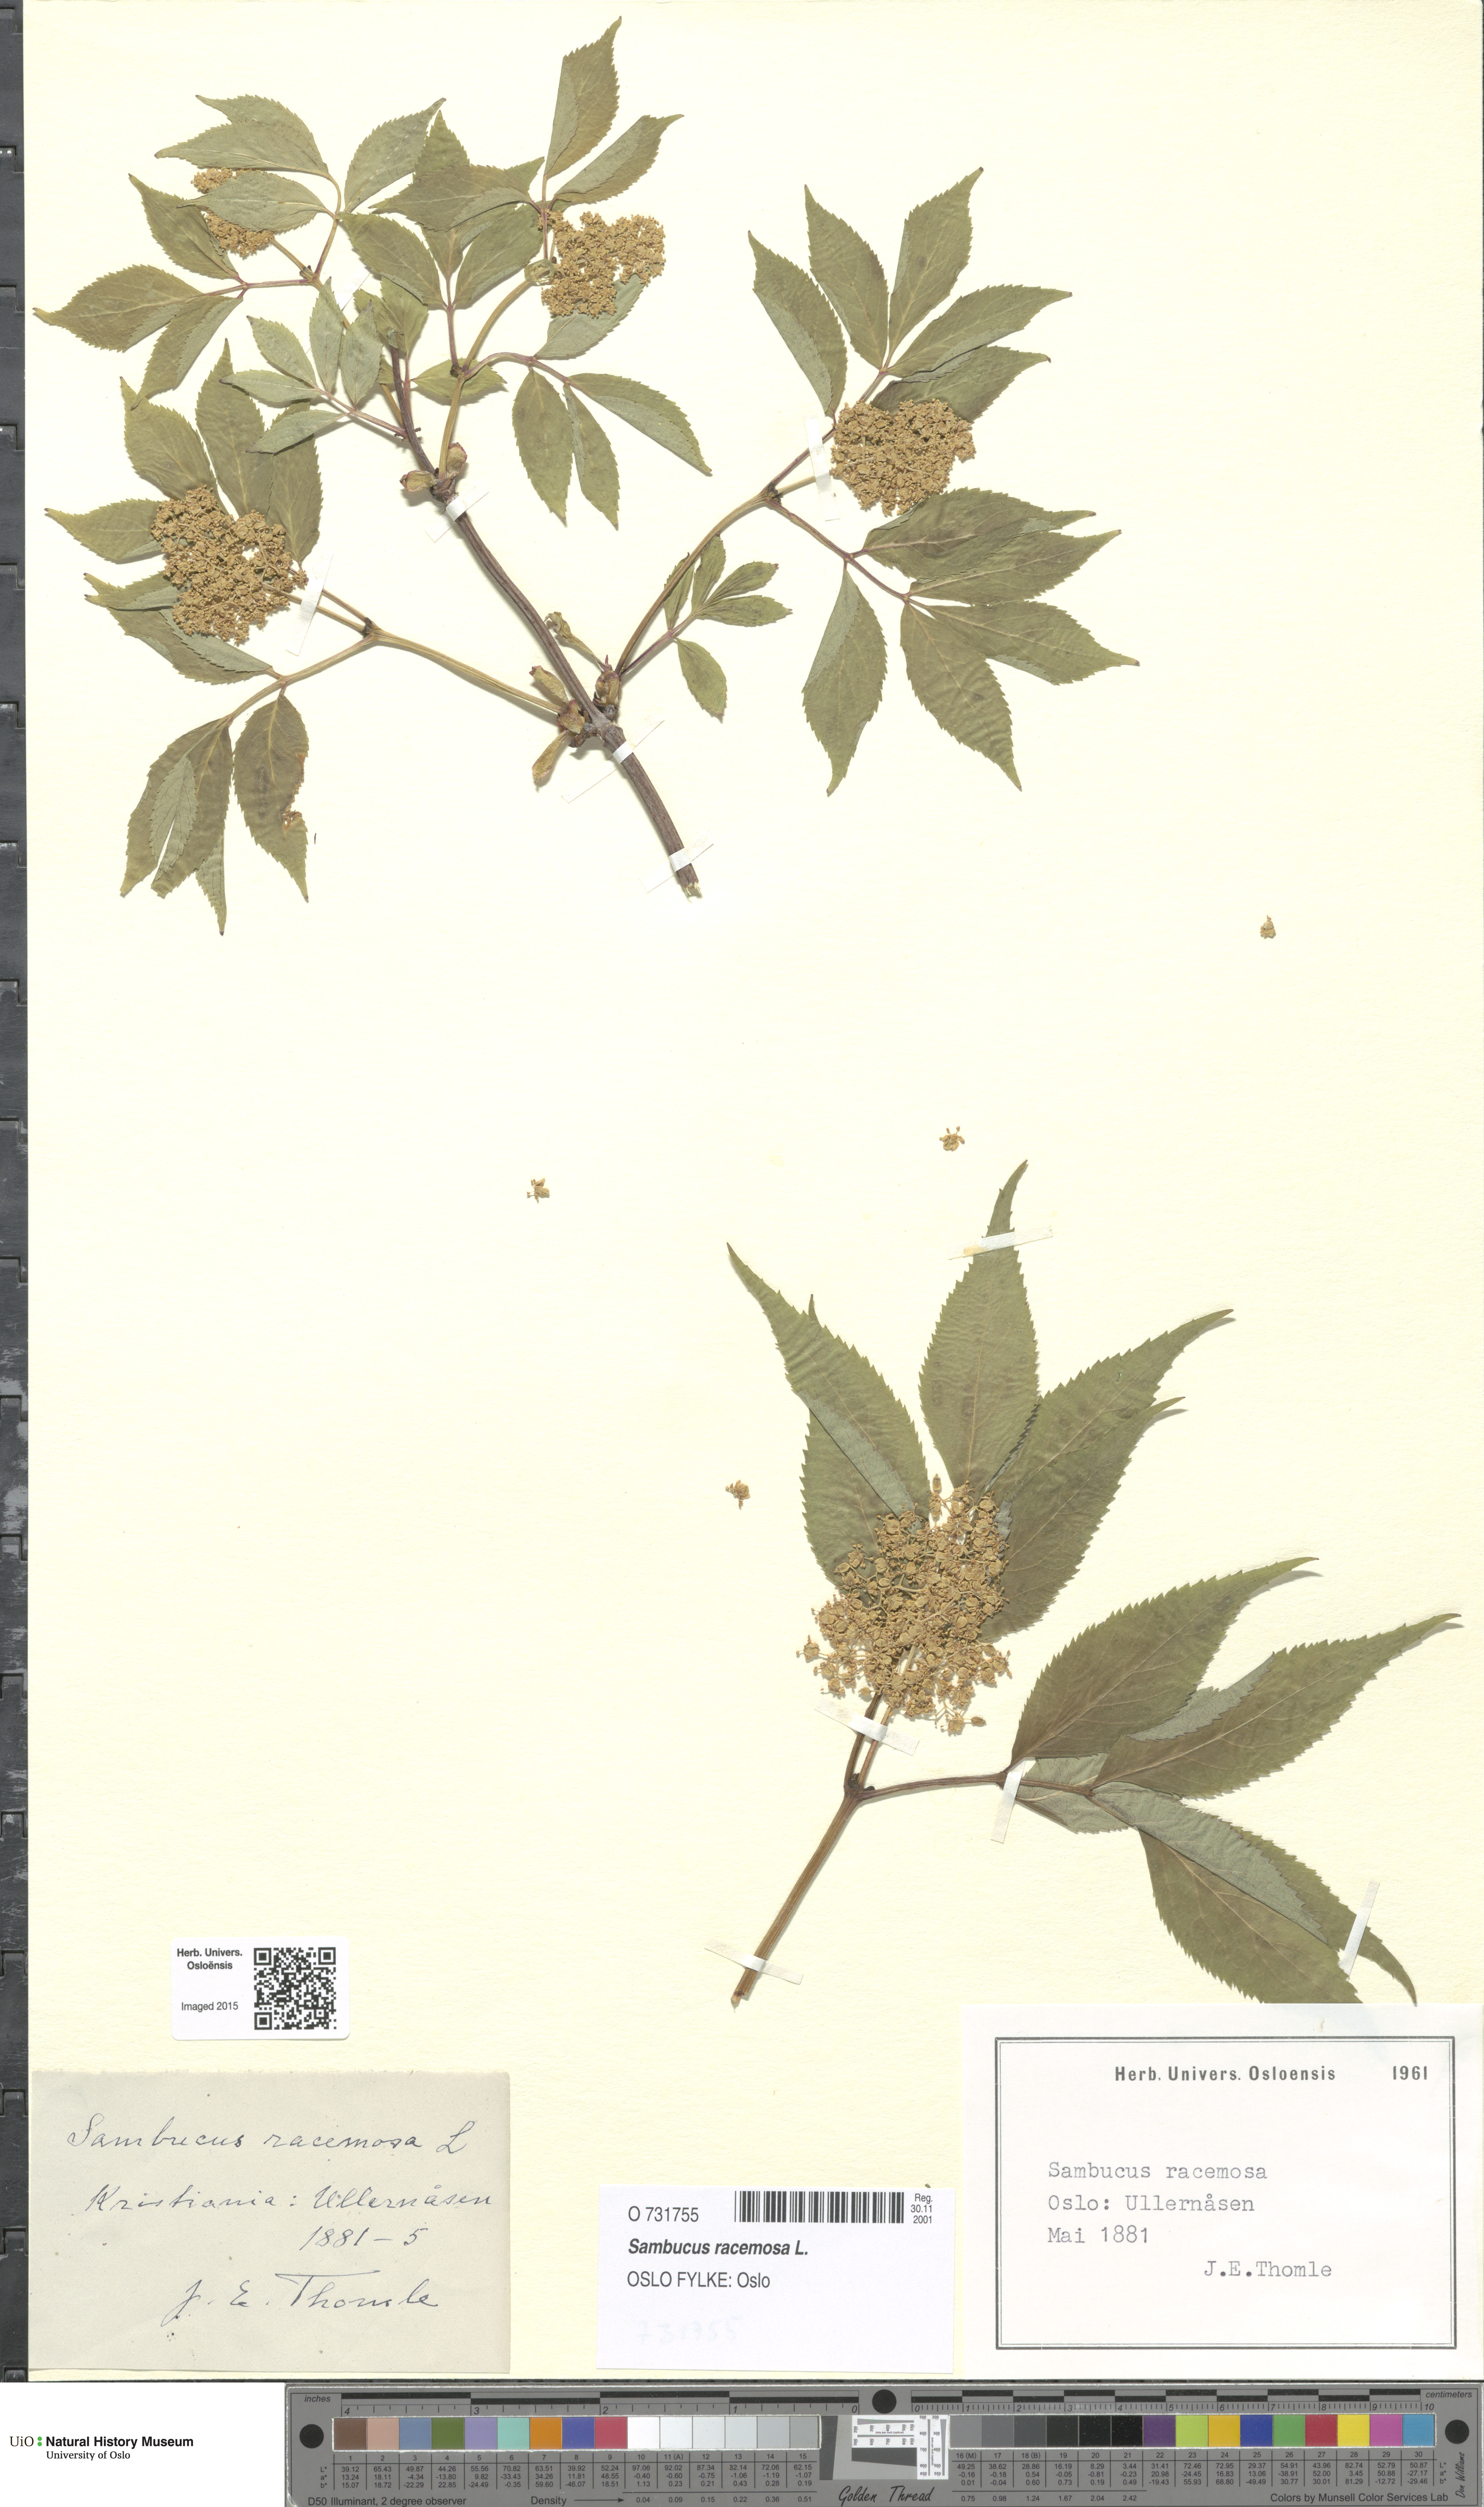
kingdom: Plantae
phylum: Tracheophyta
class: Magnoliopsida
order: Dipsacales
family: Viburnaceae
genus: Sambucus
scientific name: Sambucus racemosa
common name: Red-berried elder
